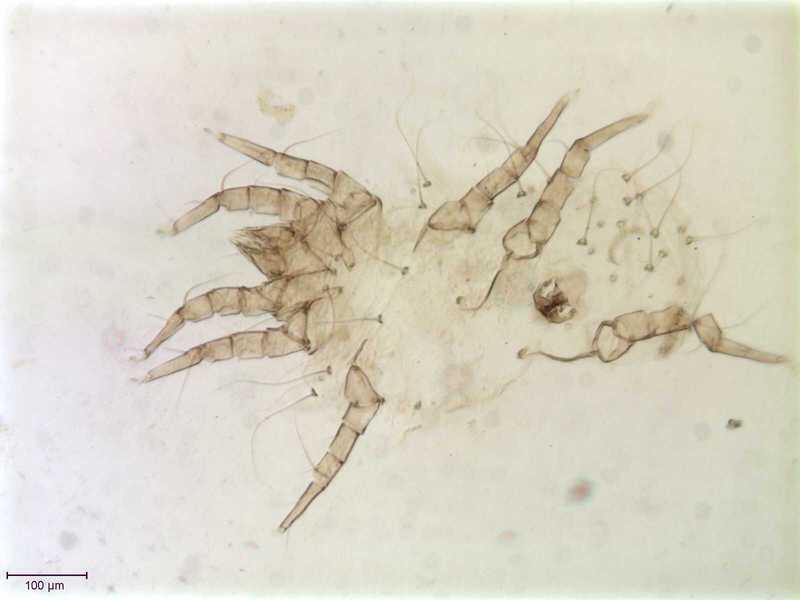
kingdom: Animalia
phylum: Arthropoda
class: Arachnida
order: Sarcoptiformes
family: Winterschmidtiidae
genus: Ensliniella
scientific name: Ensliniella parasitica
